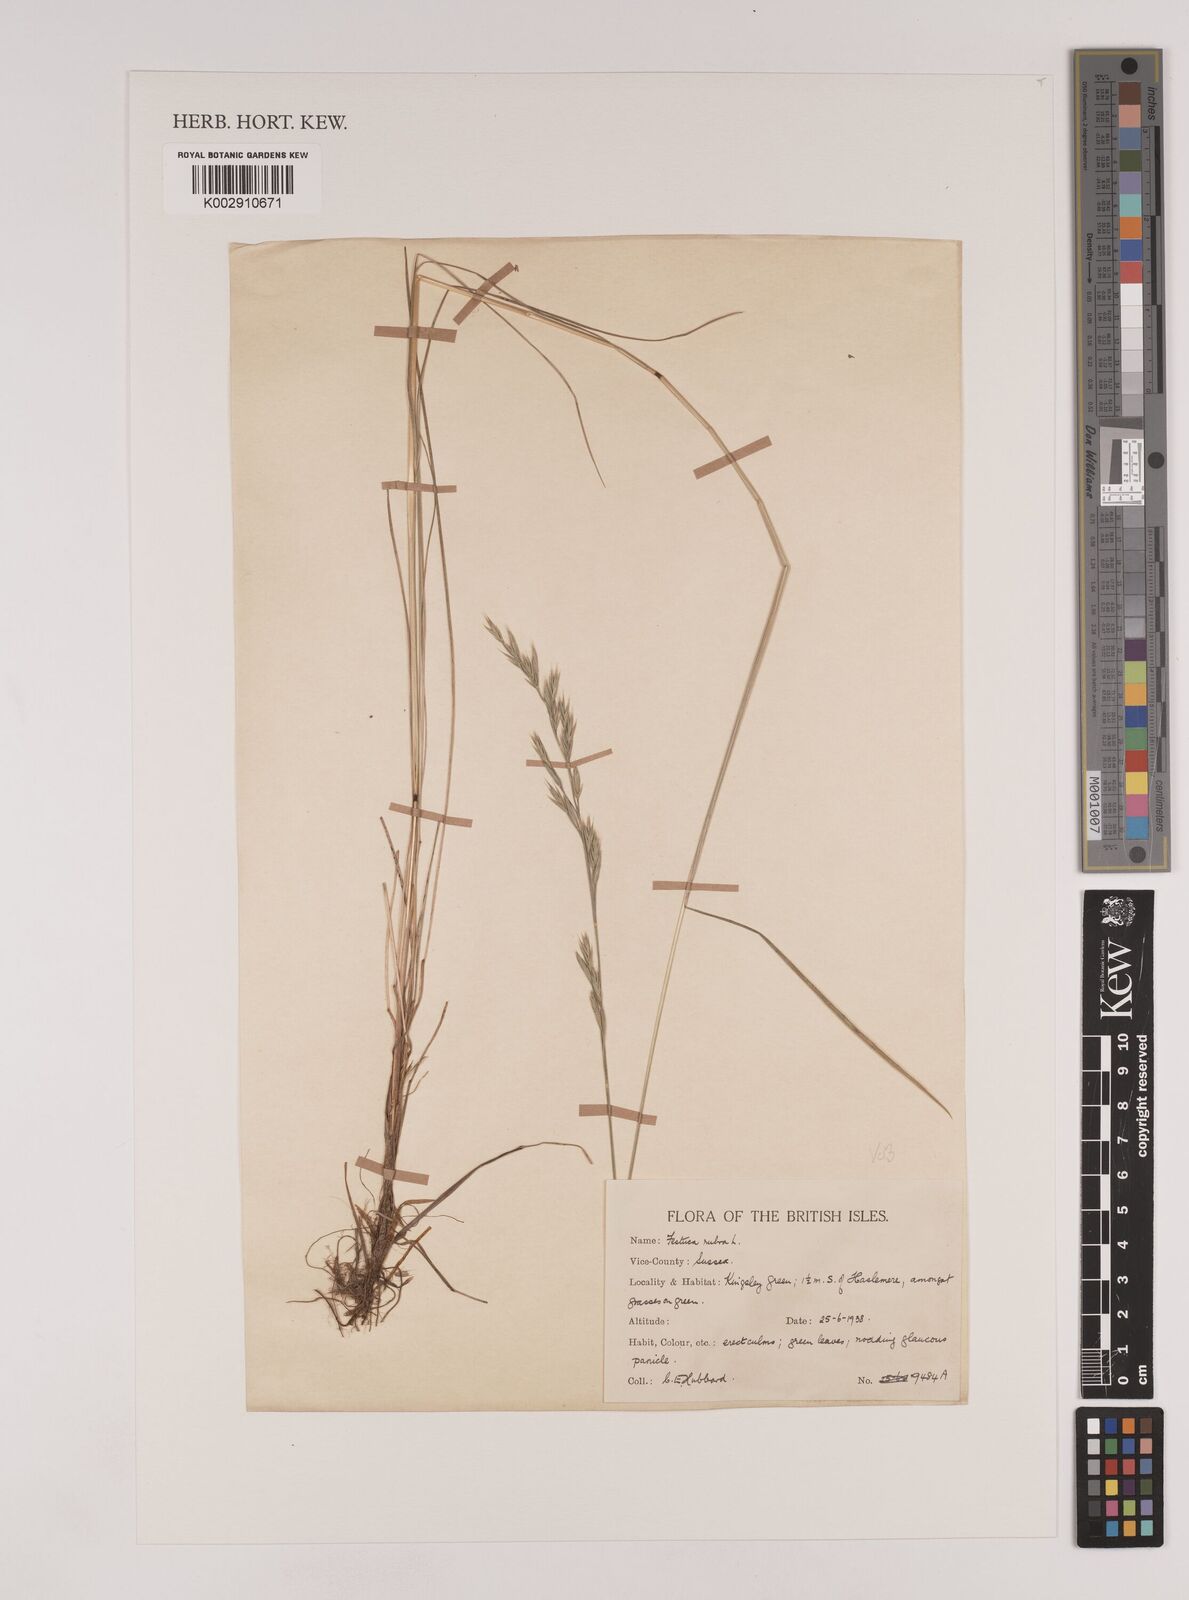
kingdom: Plantae
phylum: Tracheophyta
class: Liliopsida
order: Poales
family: Poaceae
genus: Festuca
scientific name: Festuca rubra
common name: Red fescue
